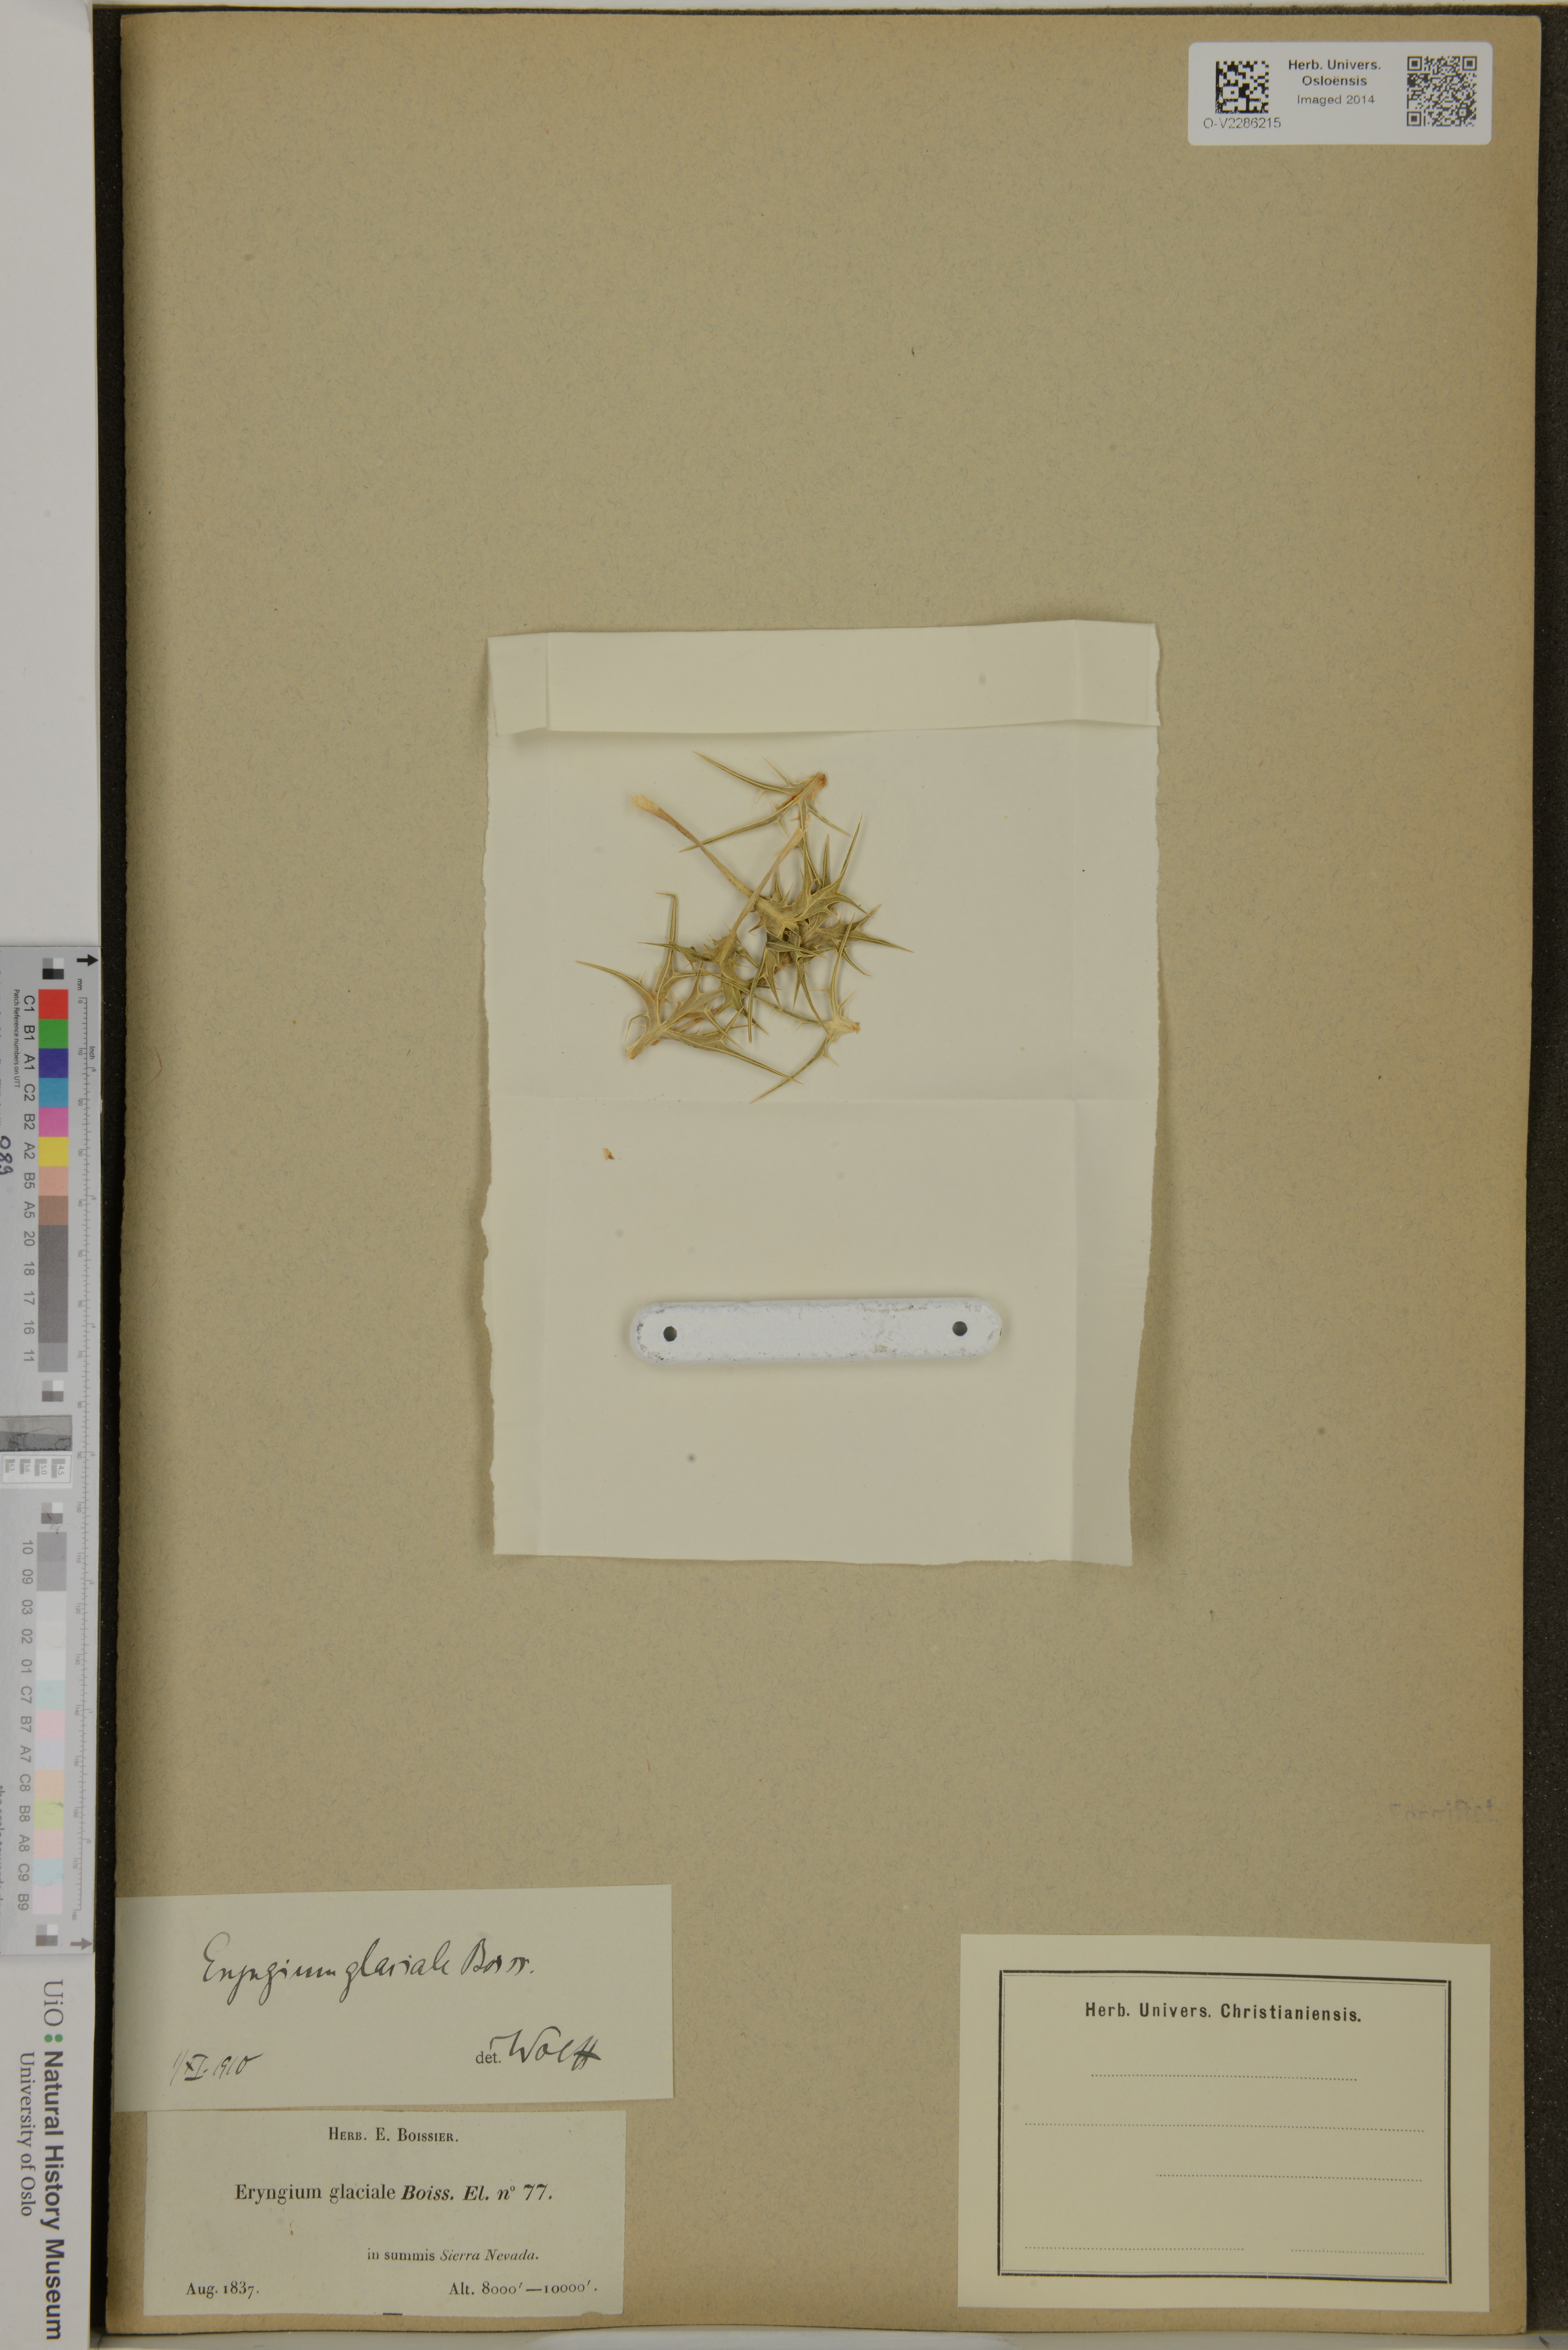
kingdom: Plantae
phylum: Tracheophyta
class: Magnoliopsida
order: Apiales
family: Apiaceae
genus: Eryngium
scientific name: Eryngium glaciale
